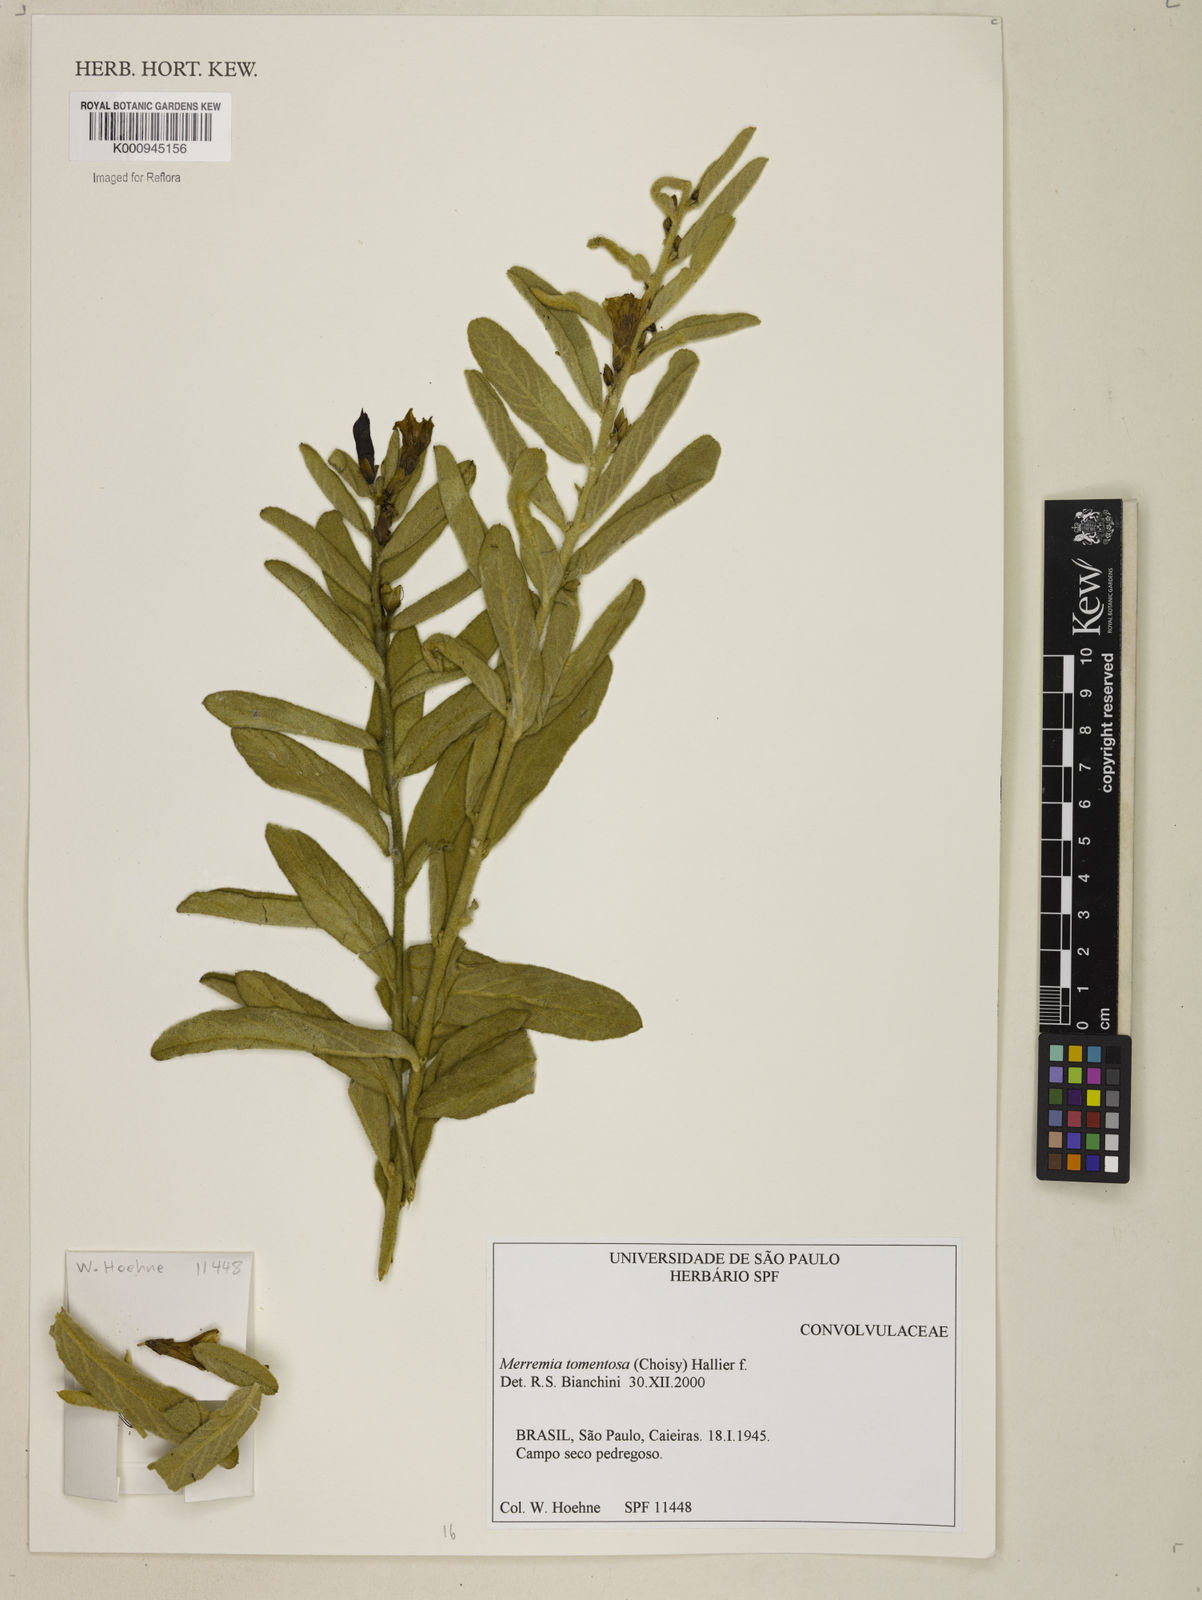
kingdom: Plantae
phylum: Tracheophyta
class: Magnoliopsida
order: Solanales
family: Convolvulaceae
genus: Distimake
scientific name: Distimake tomentosus
